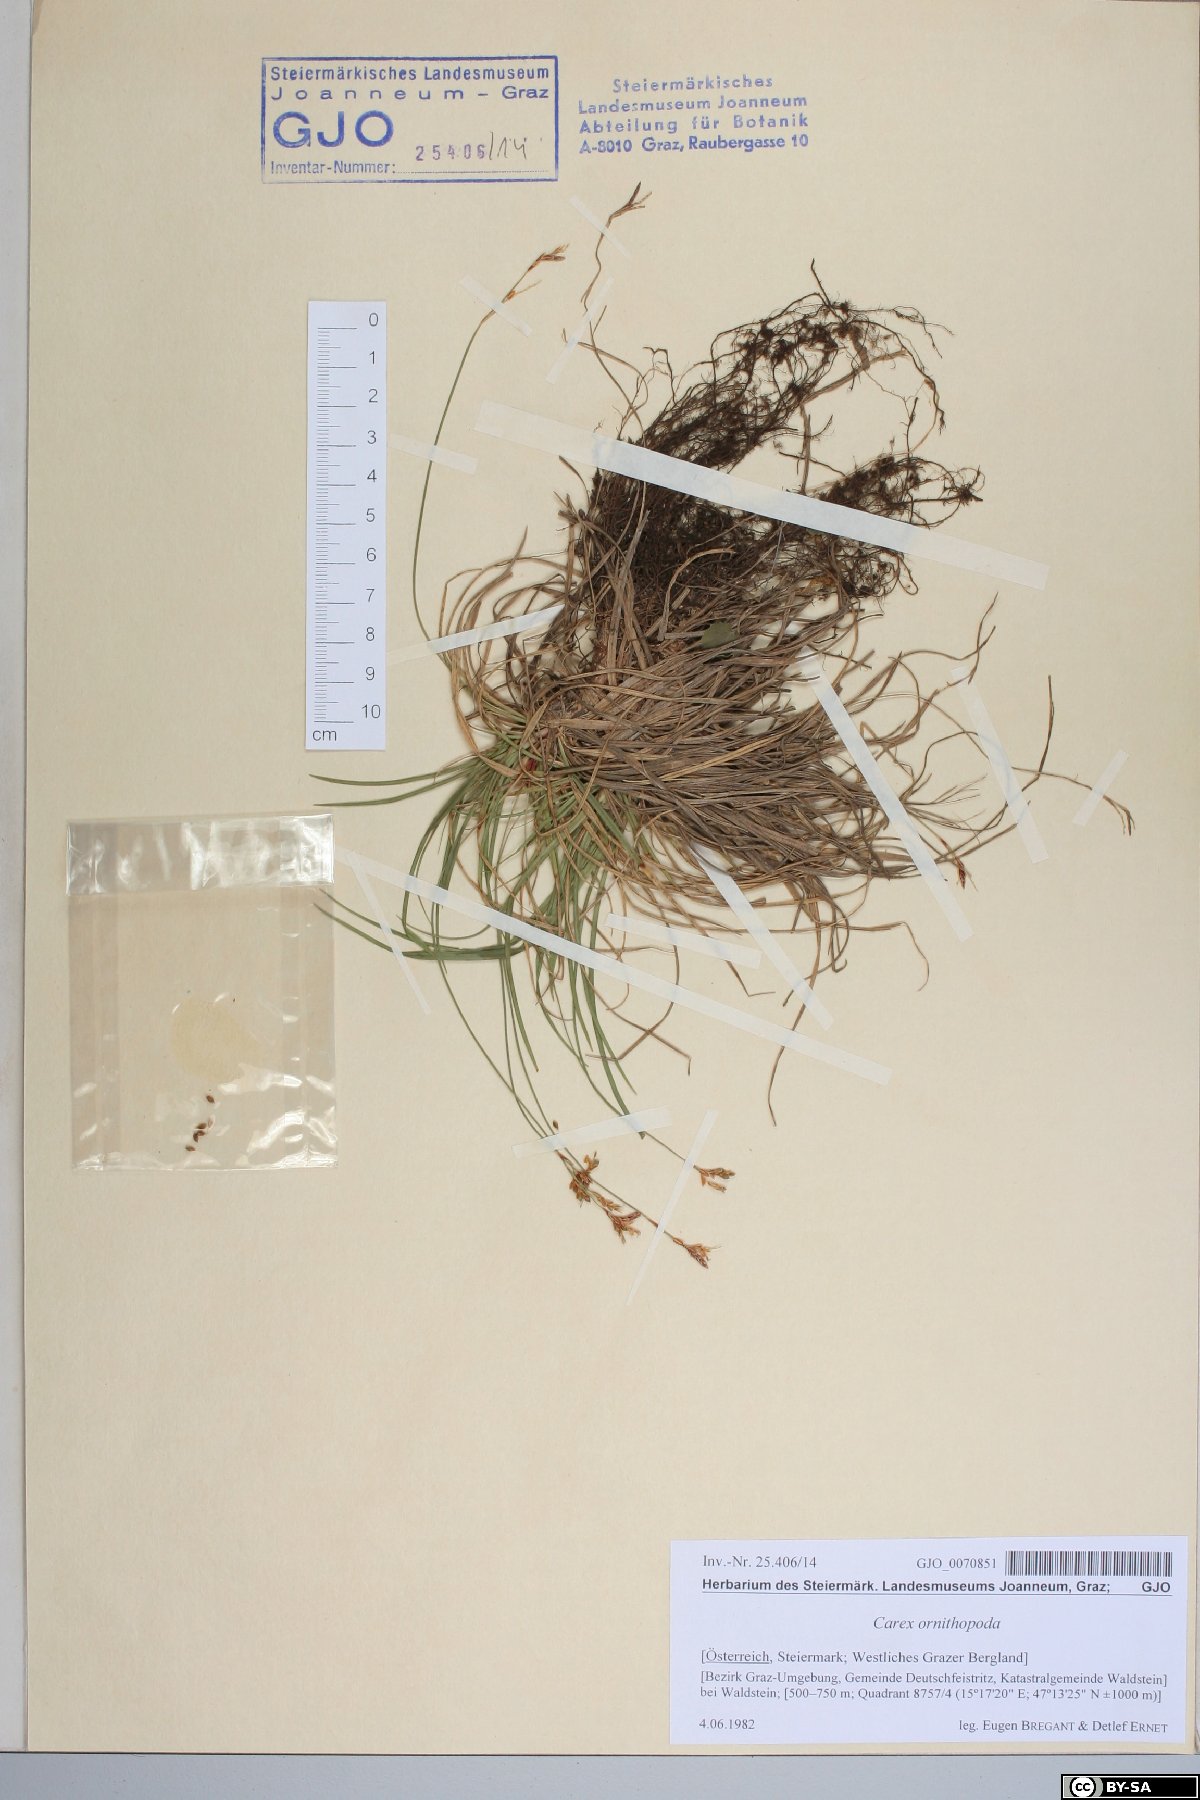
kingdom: Plantae
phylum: Tracheophyta
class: Liliopsida
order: Poales
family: Cyperaceae
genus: Carex
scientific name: Carex ornithopoda
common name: Bird's-foot sedge
